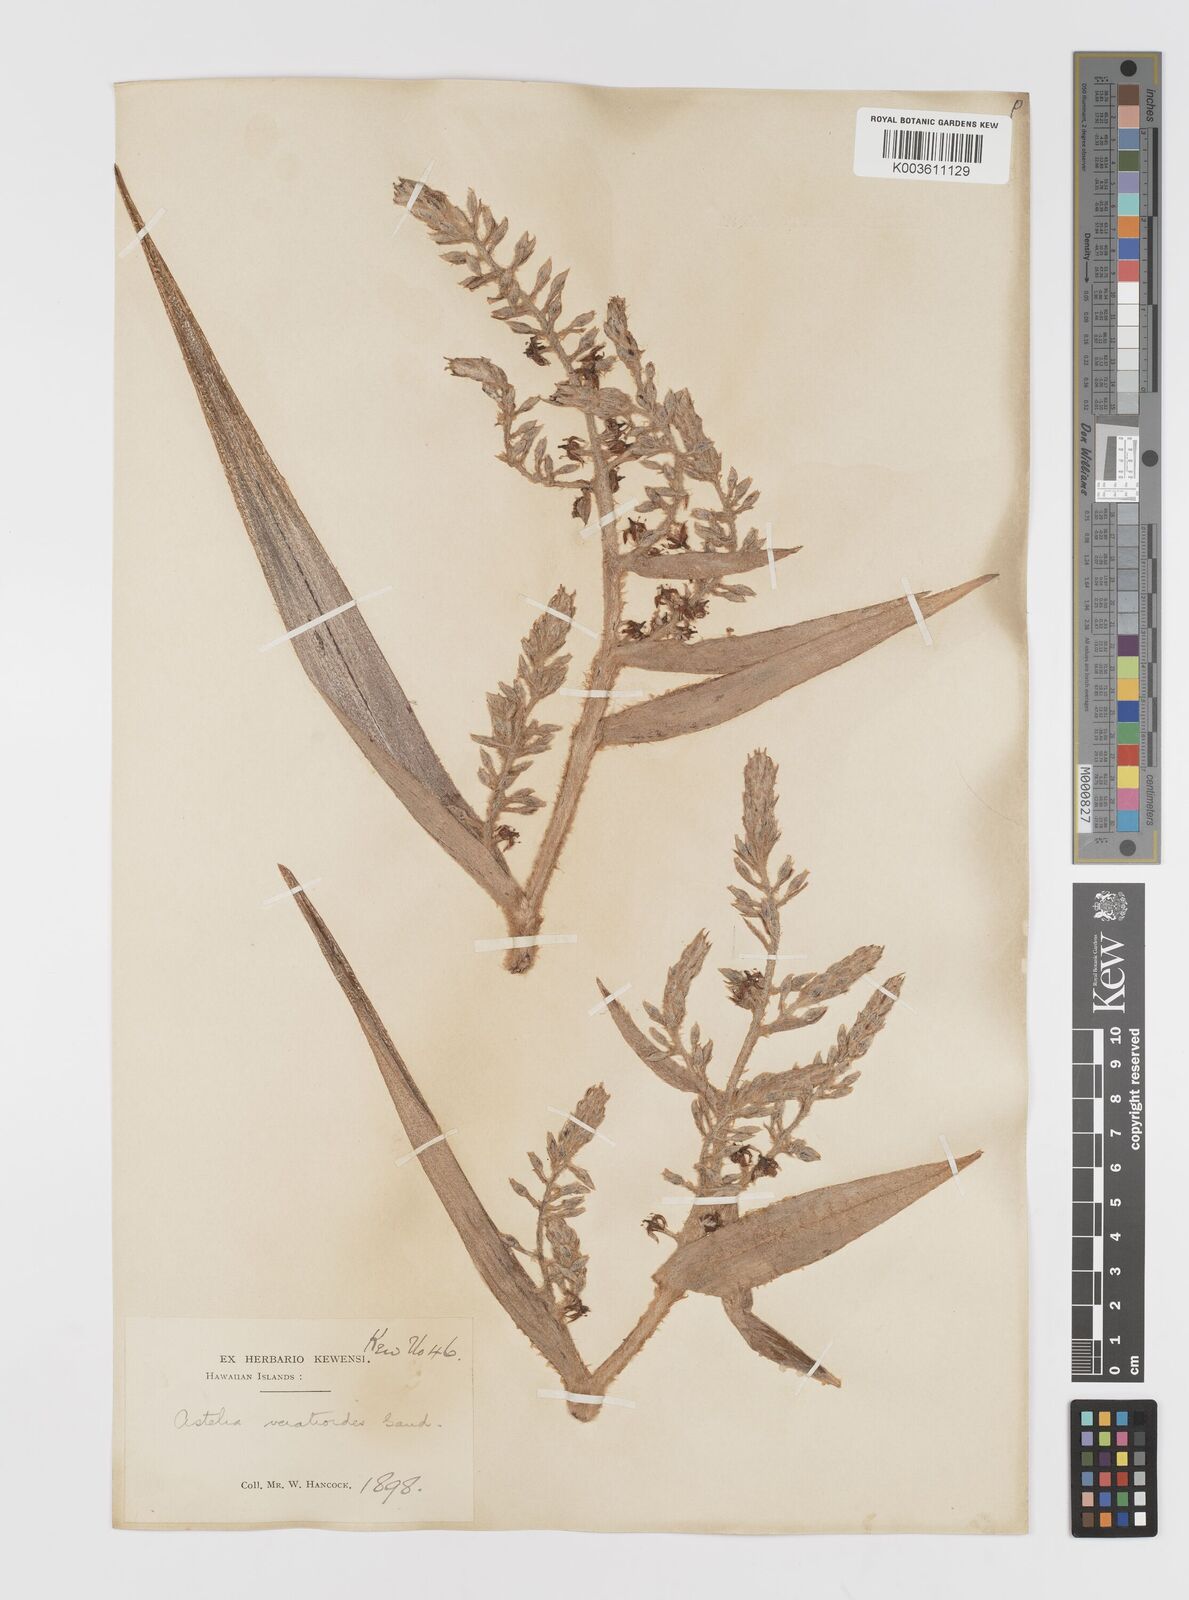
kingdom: Plantae
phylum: Tracheophyta
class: Liliopsida
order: Asparagales
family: Asteliaceae
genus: Astelia
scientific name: Astelia menziesiana
